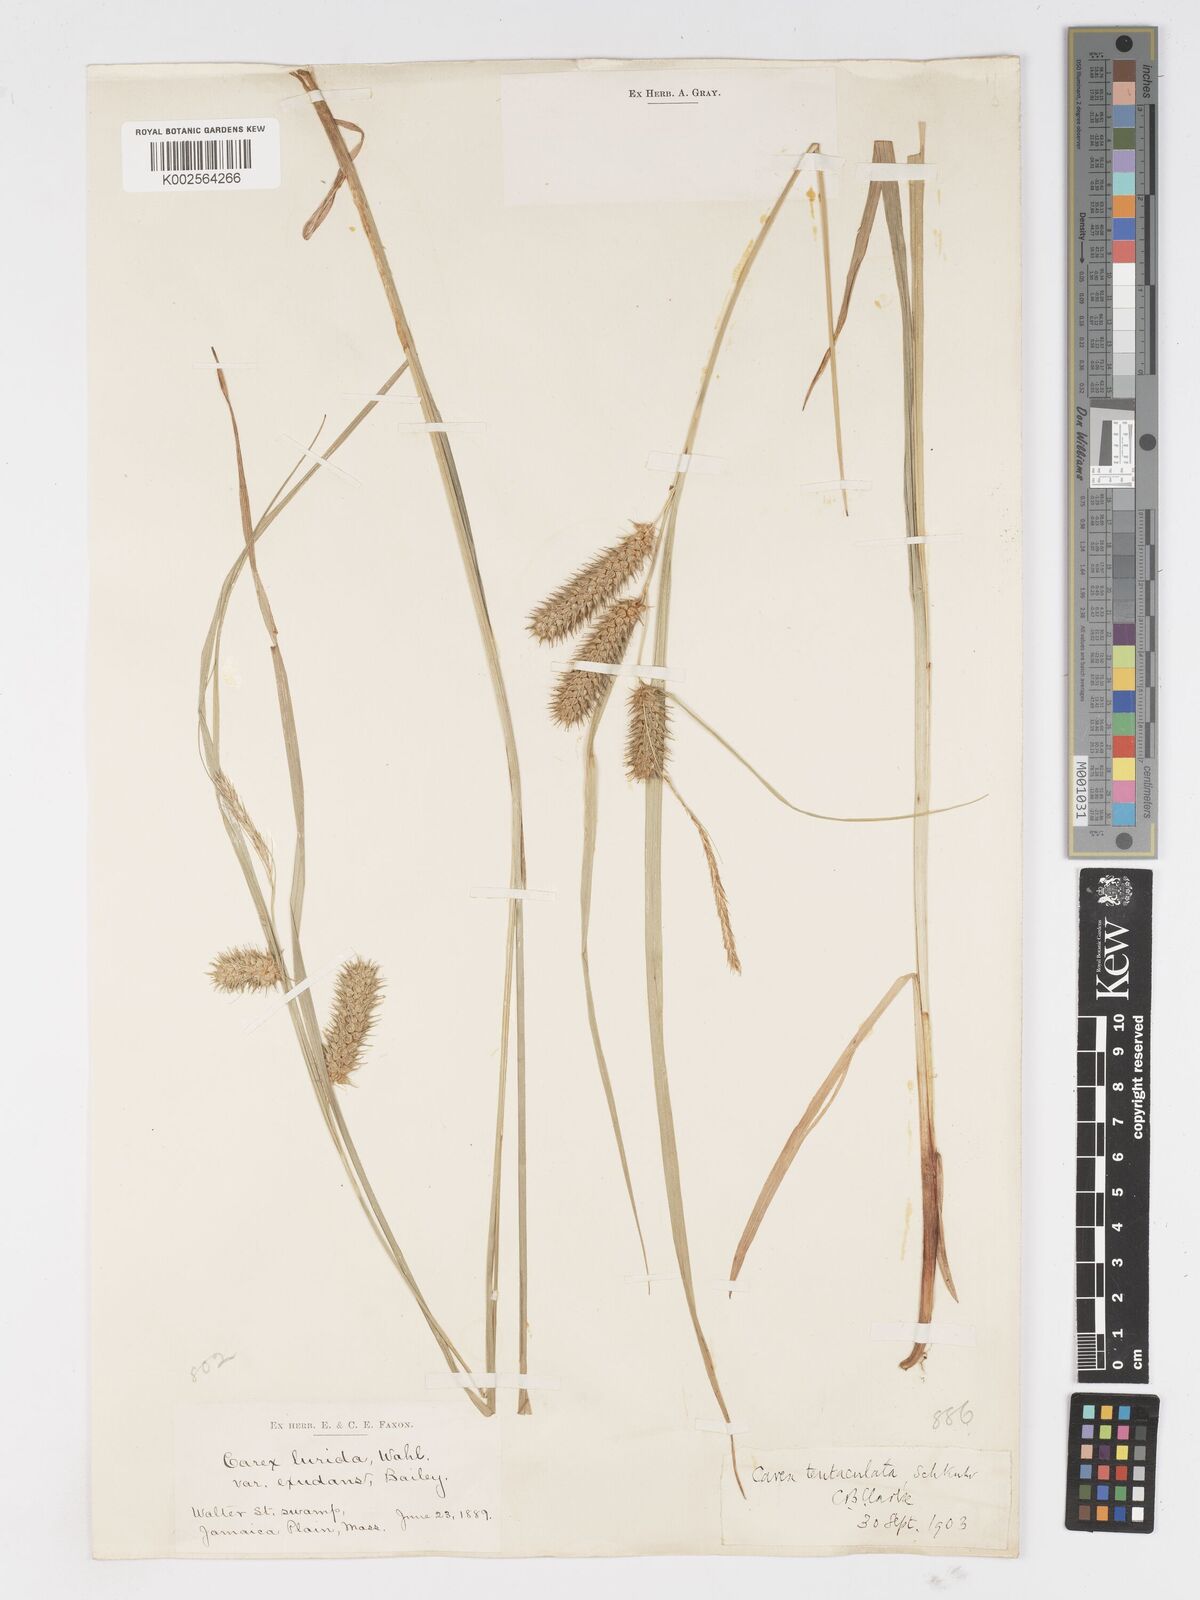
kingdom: Plantae
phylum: Tracheophyta
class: Liliopsida
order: Poales
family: Cyperaceae
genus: Carex
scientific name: Carex lurida
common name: Sallow sedge
